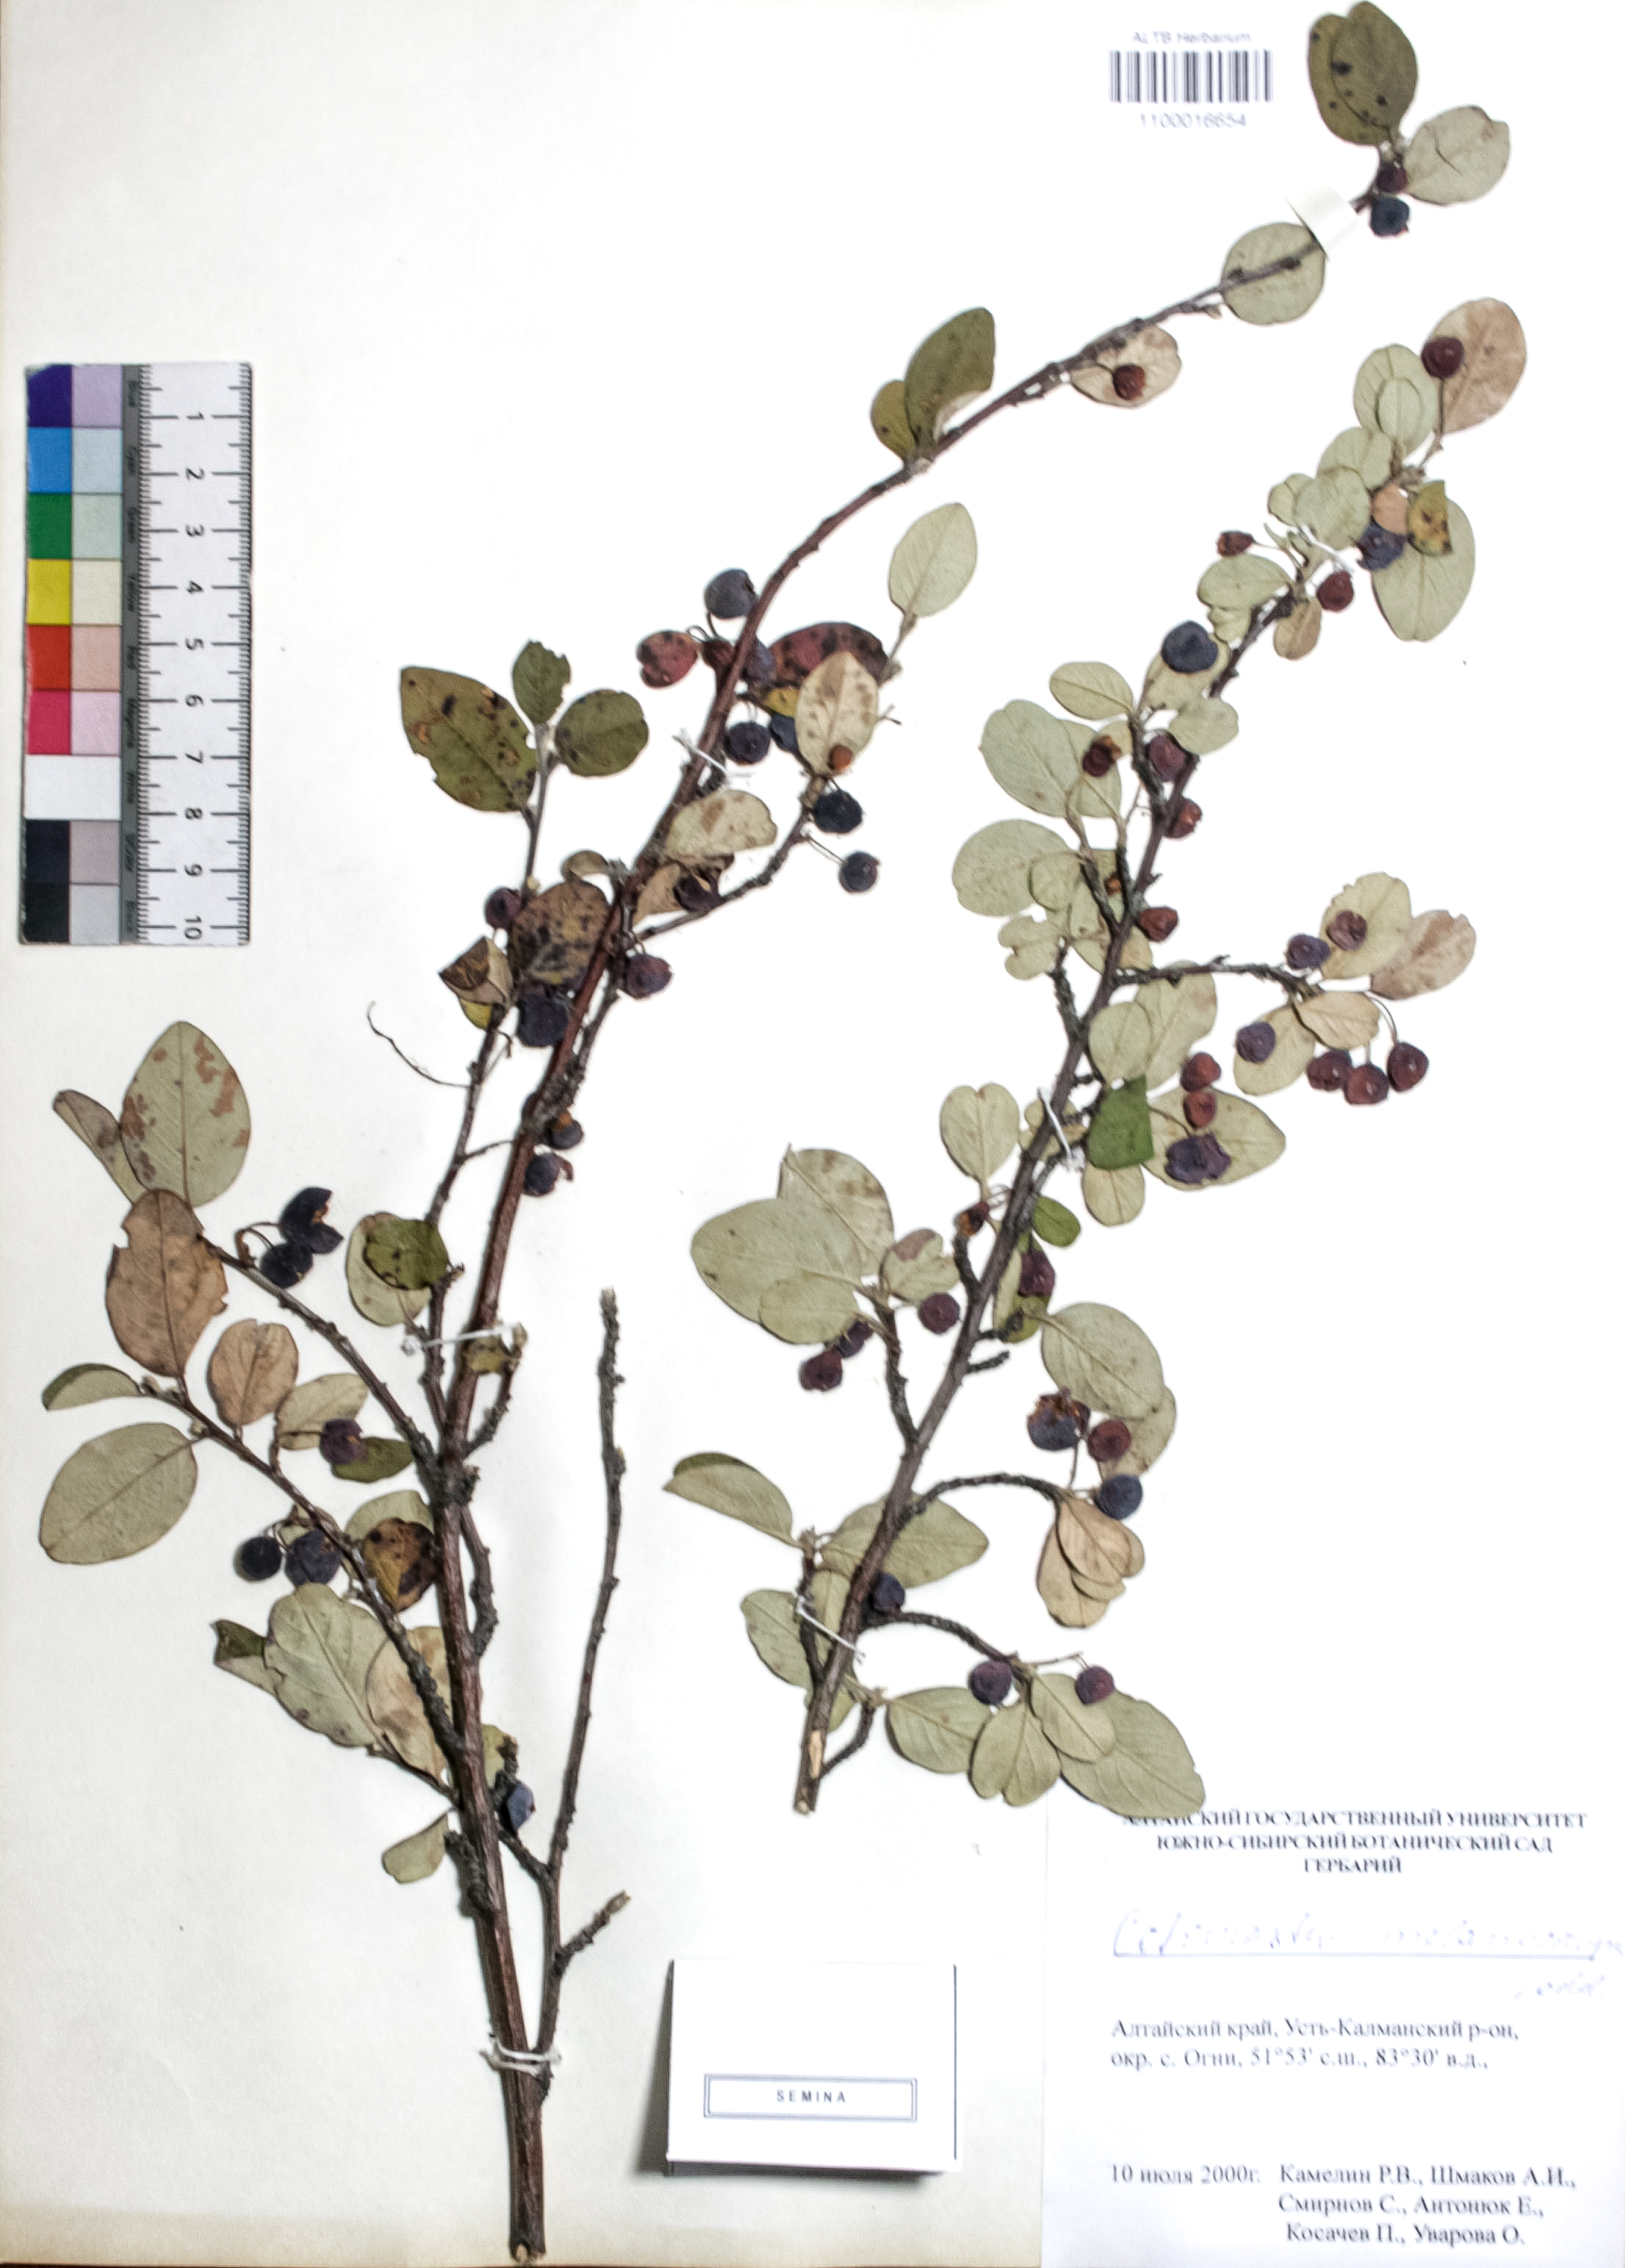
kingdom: Plantae
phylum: Tracheophyta
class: Magnoliopsida
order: Rosales
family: Rosaceae
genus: Cotoneaster
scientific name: Cotoneaster niger
